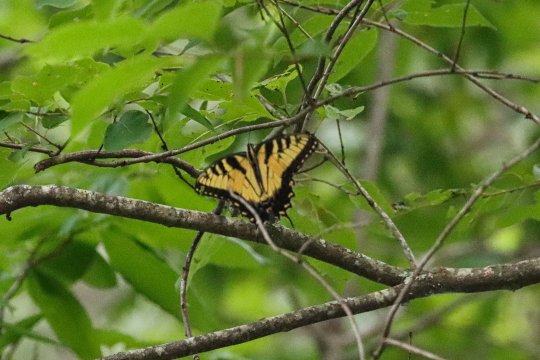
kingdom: Animalia
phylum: Arthropoda
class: Insecta
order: Lepidoptera
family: Papilionidae
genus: Pterourus
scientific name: Pterourus glaucus
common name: Eastern Tiger Swallowtail
